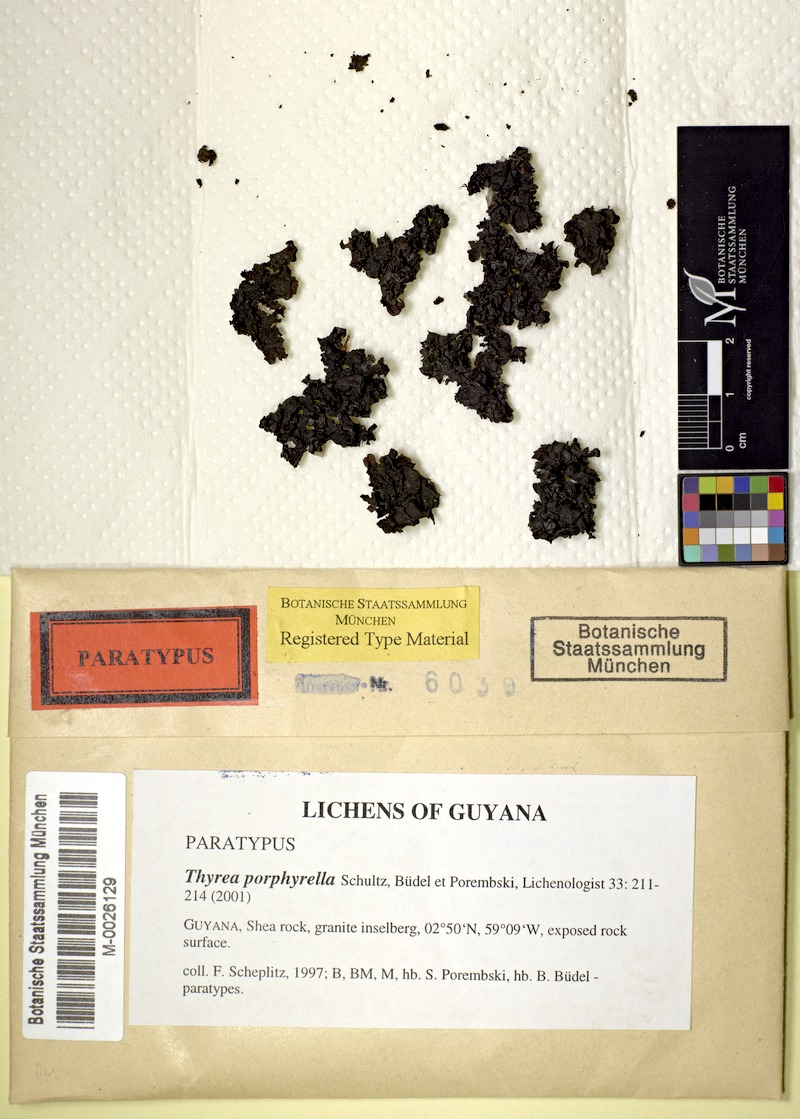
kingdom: Fungi
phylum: Ascomycota
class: Lichinomycetes
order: Lichinales
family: Lichinaceae
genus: Thyrea
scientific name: Thyrea porphyrella
